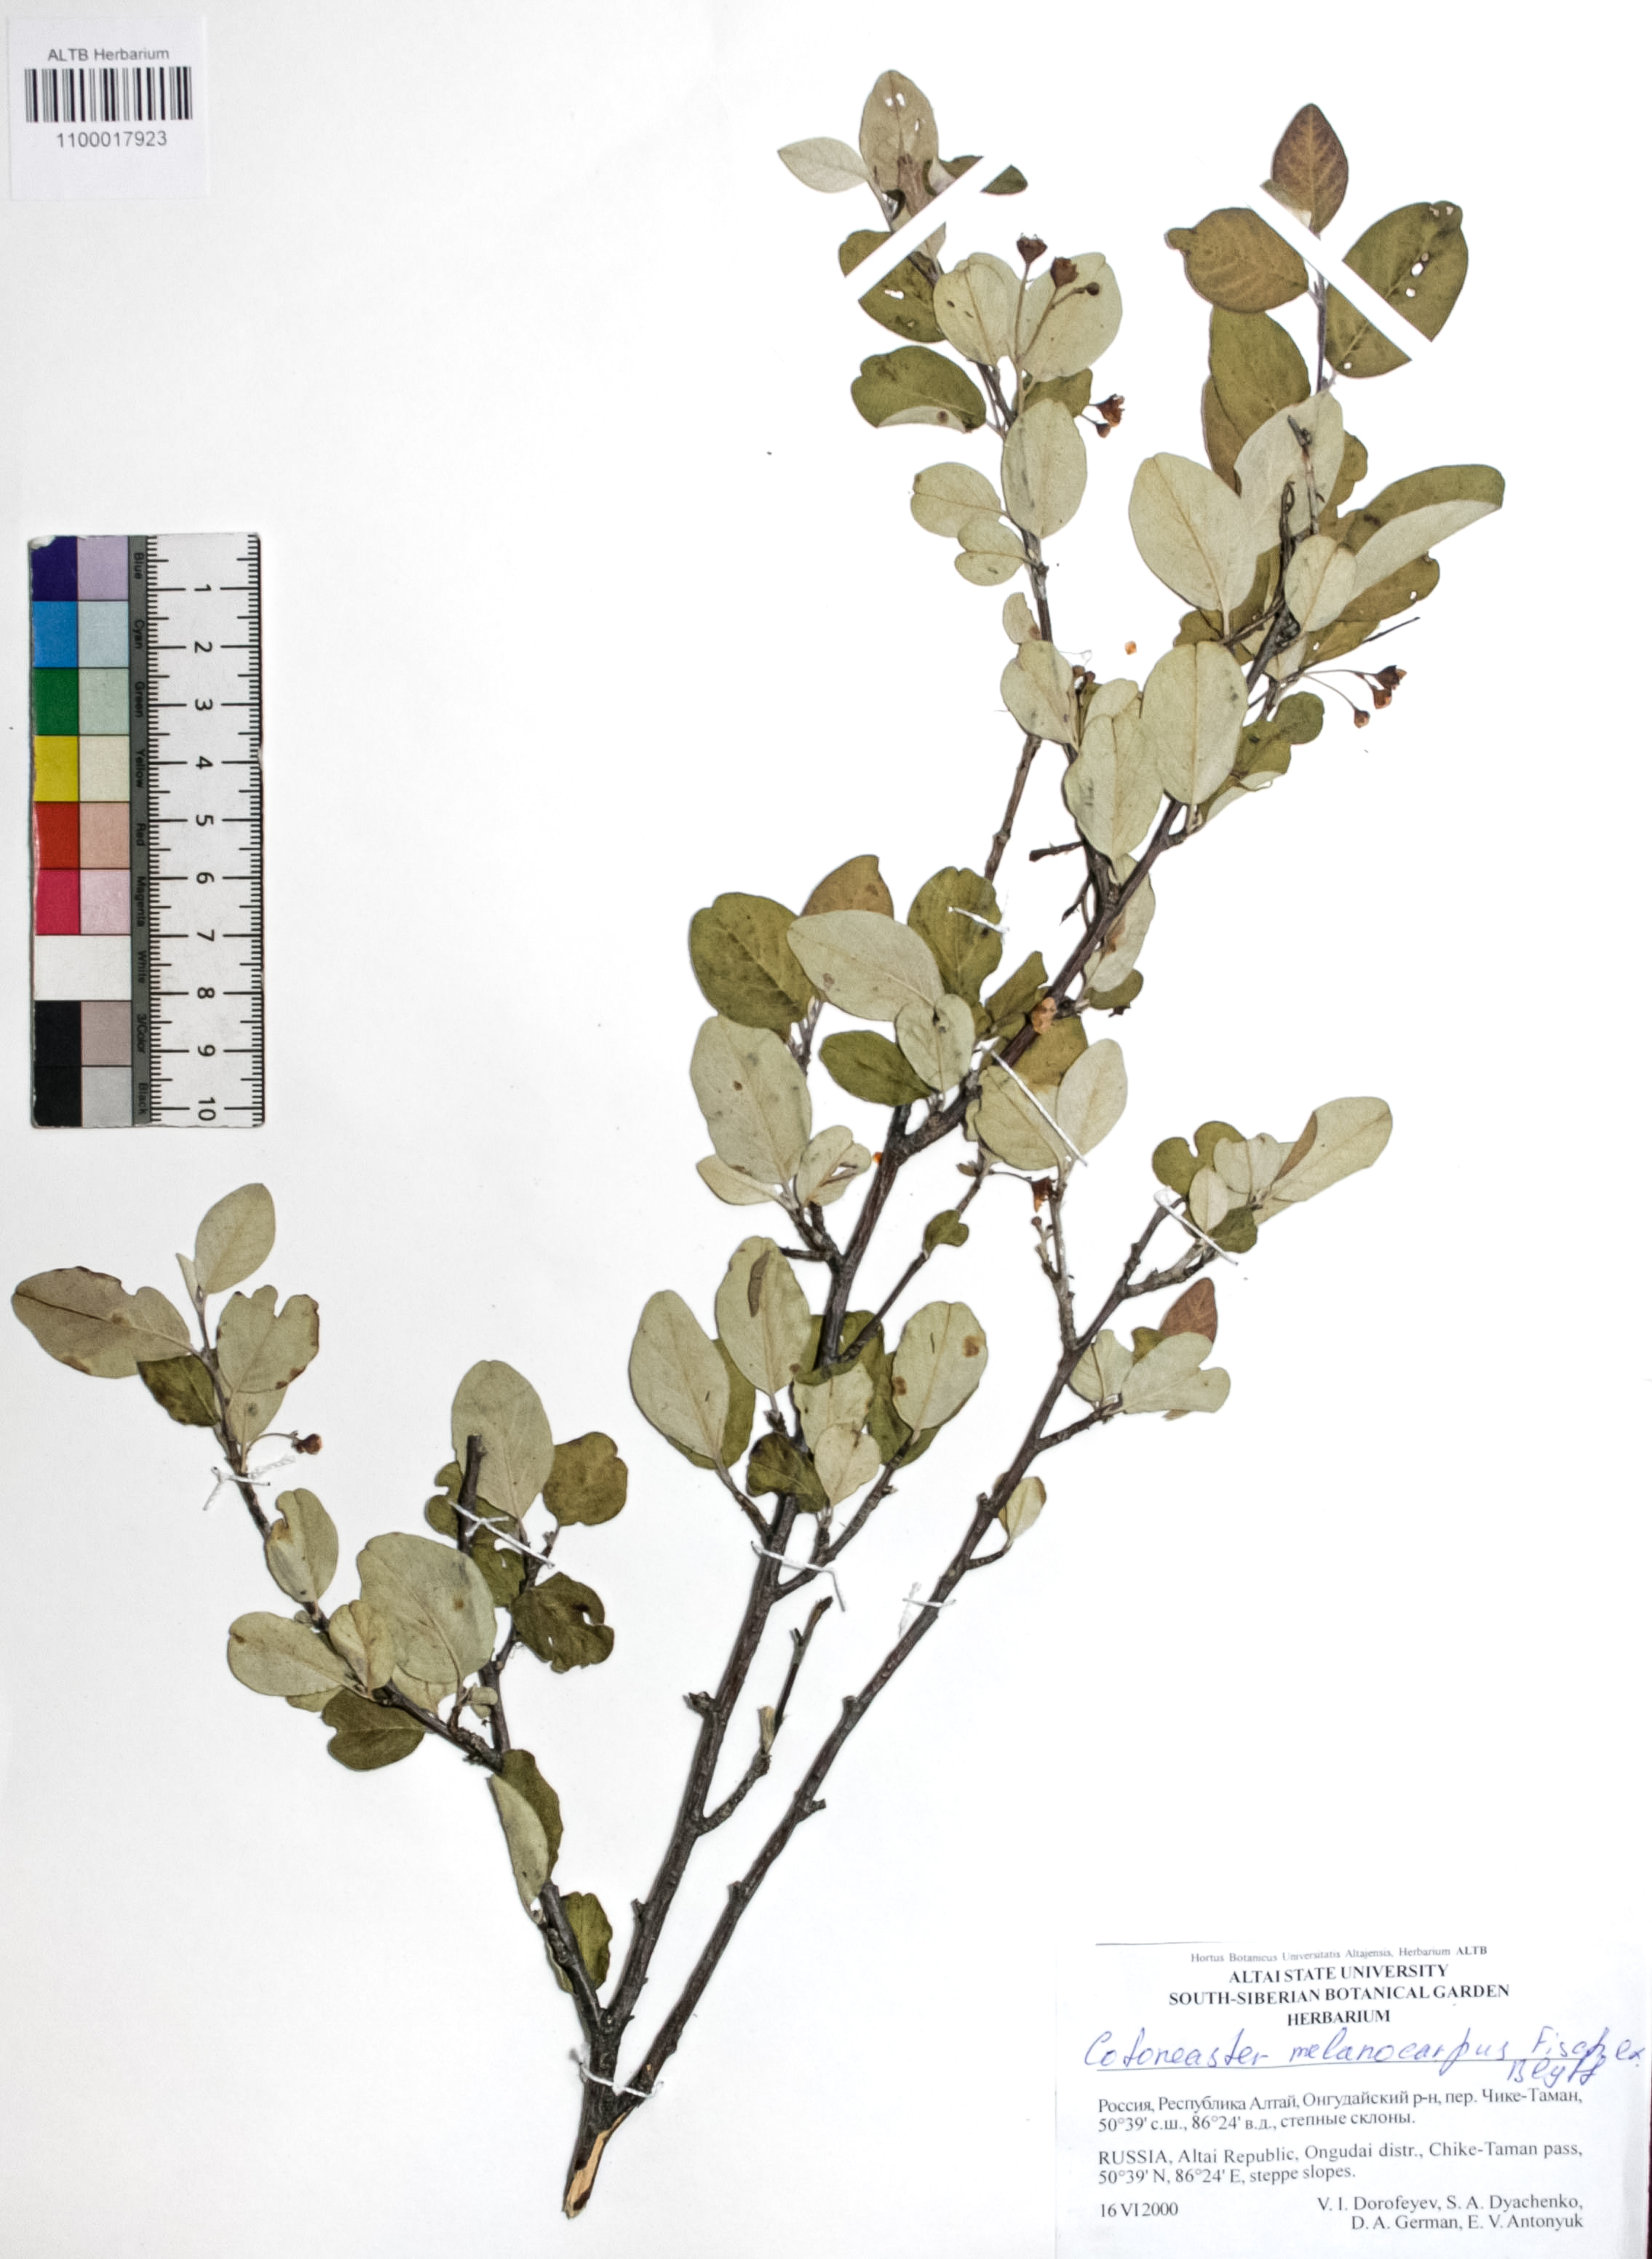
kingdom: Plantae
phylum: Tracheophyta
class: Magnoliopsida
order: Rosales
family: Rosaceae
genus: Cotoneaster
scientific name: Cotoneaster niger
